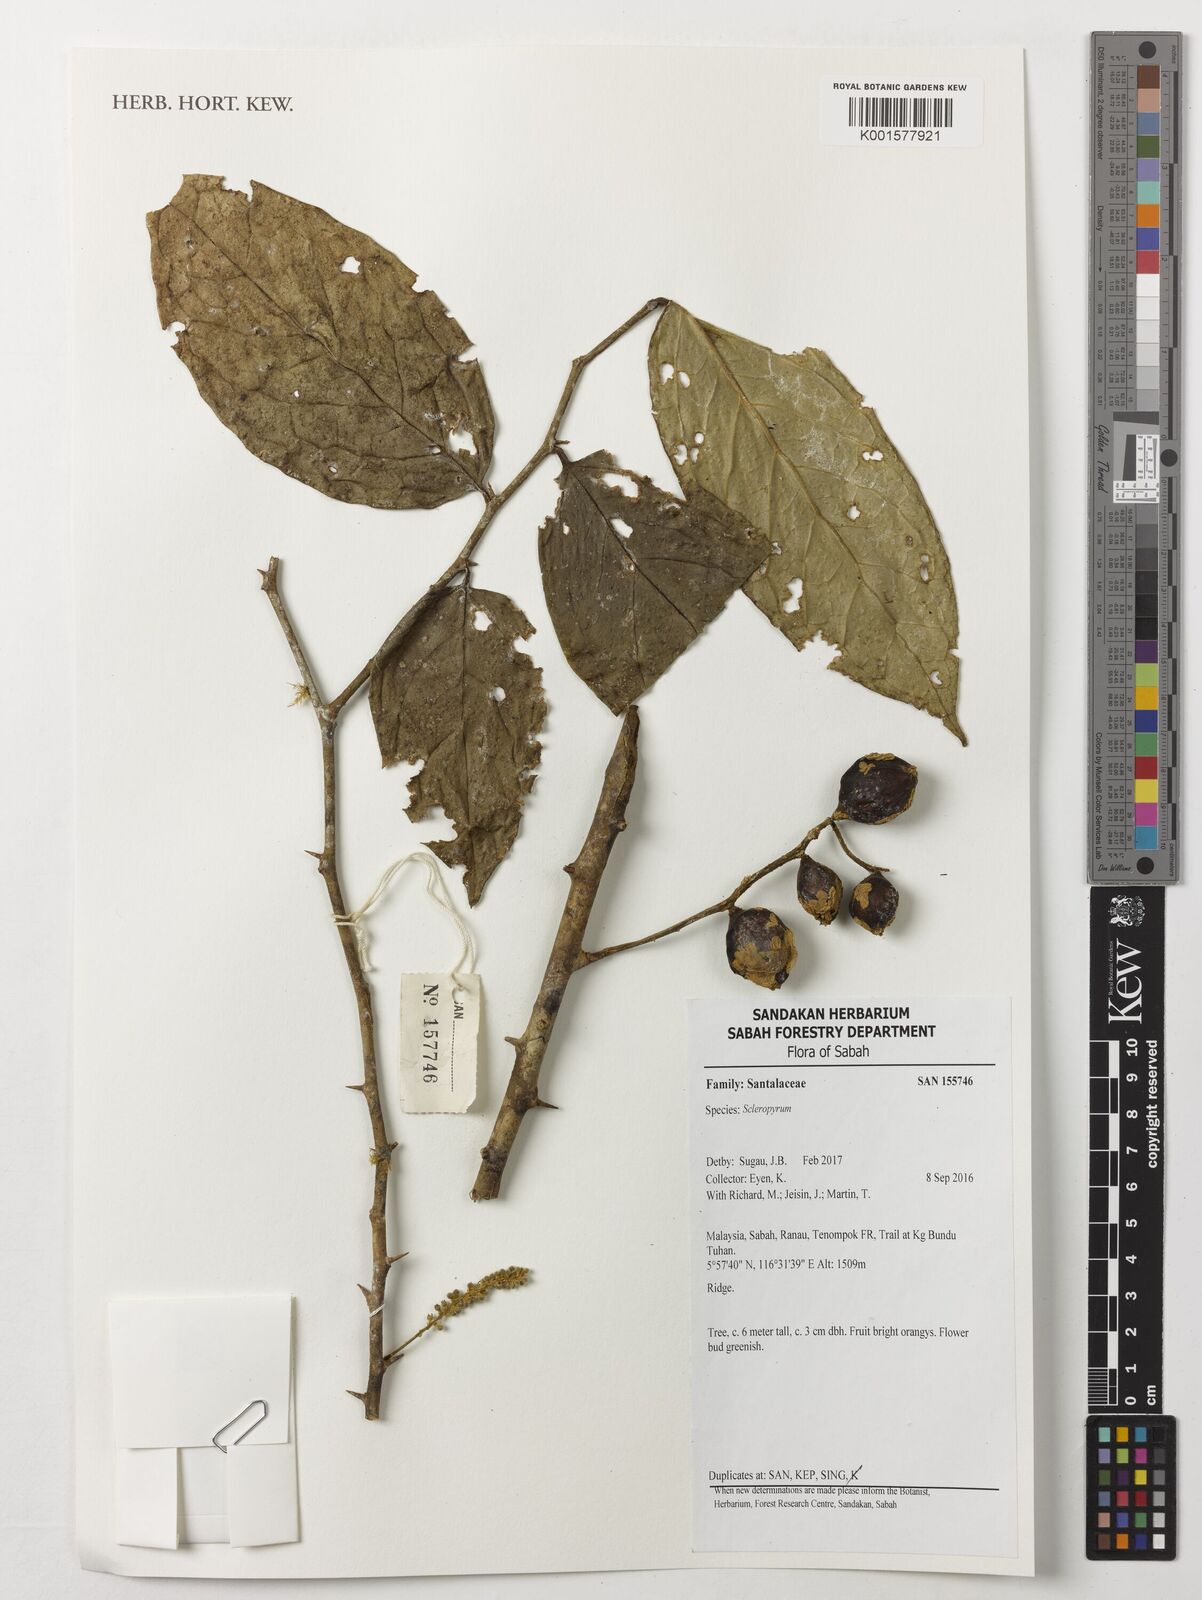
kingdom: Plantae
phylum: Tracheophyta
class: Magnoliopsida
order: Santalales
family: Cervantesiaceae
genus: Scleropyrum
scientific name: Scleropyrum
